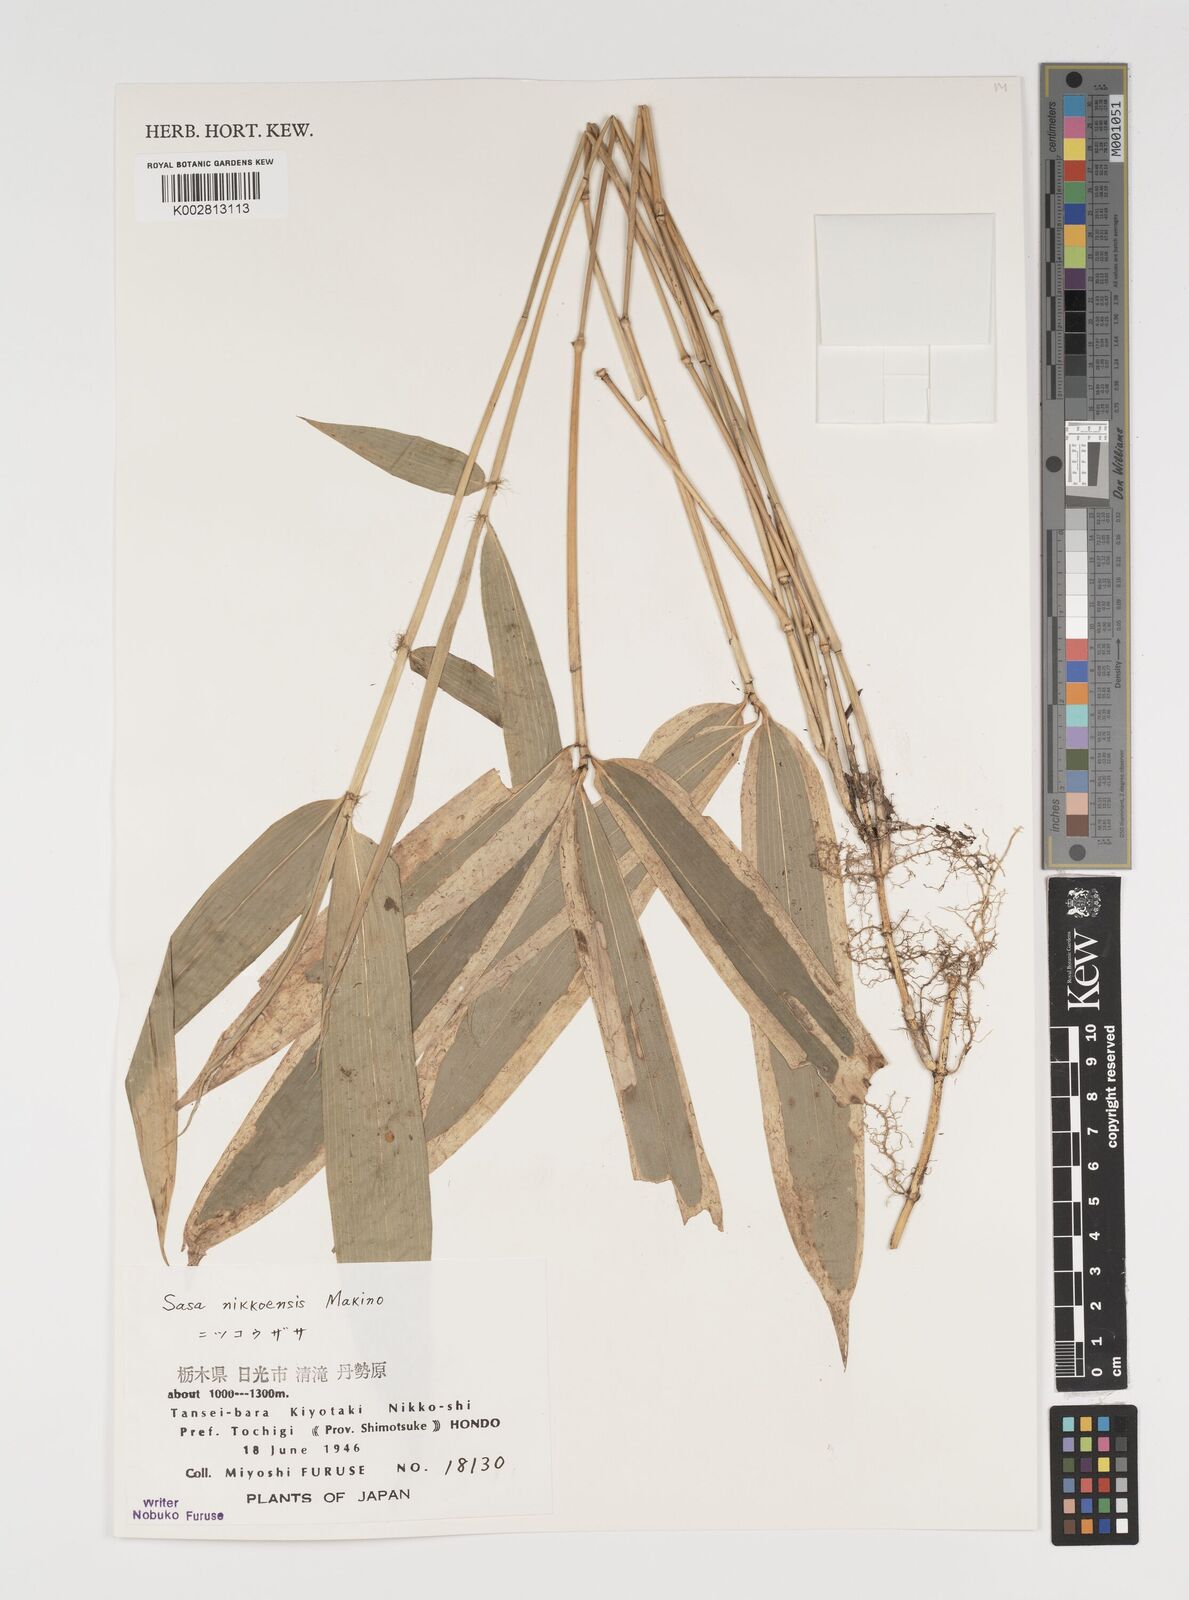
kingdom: Plantae
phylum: Tracheophyta
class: Liliopsida
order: Poales
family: Poaceae
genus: Sasa
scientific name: Sasa chartacea
